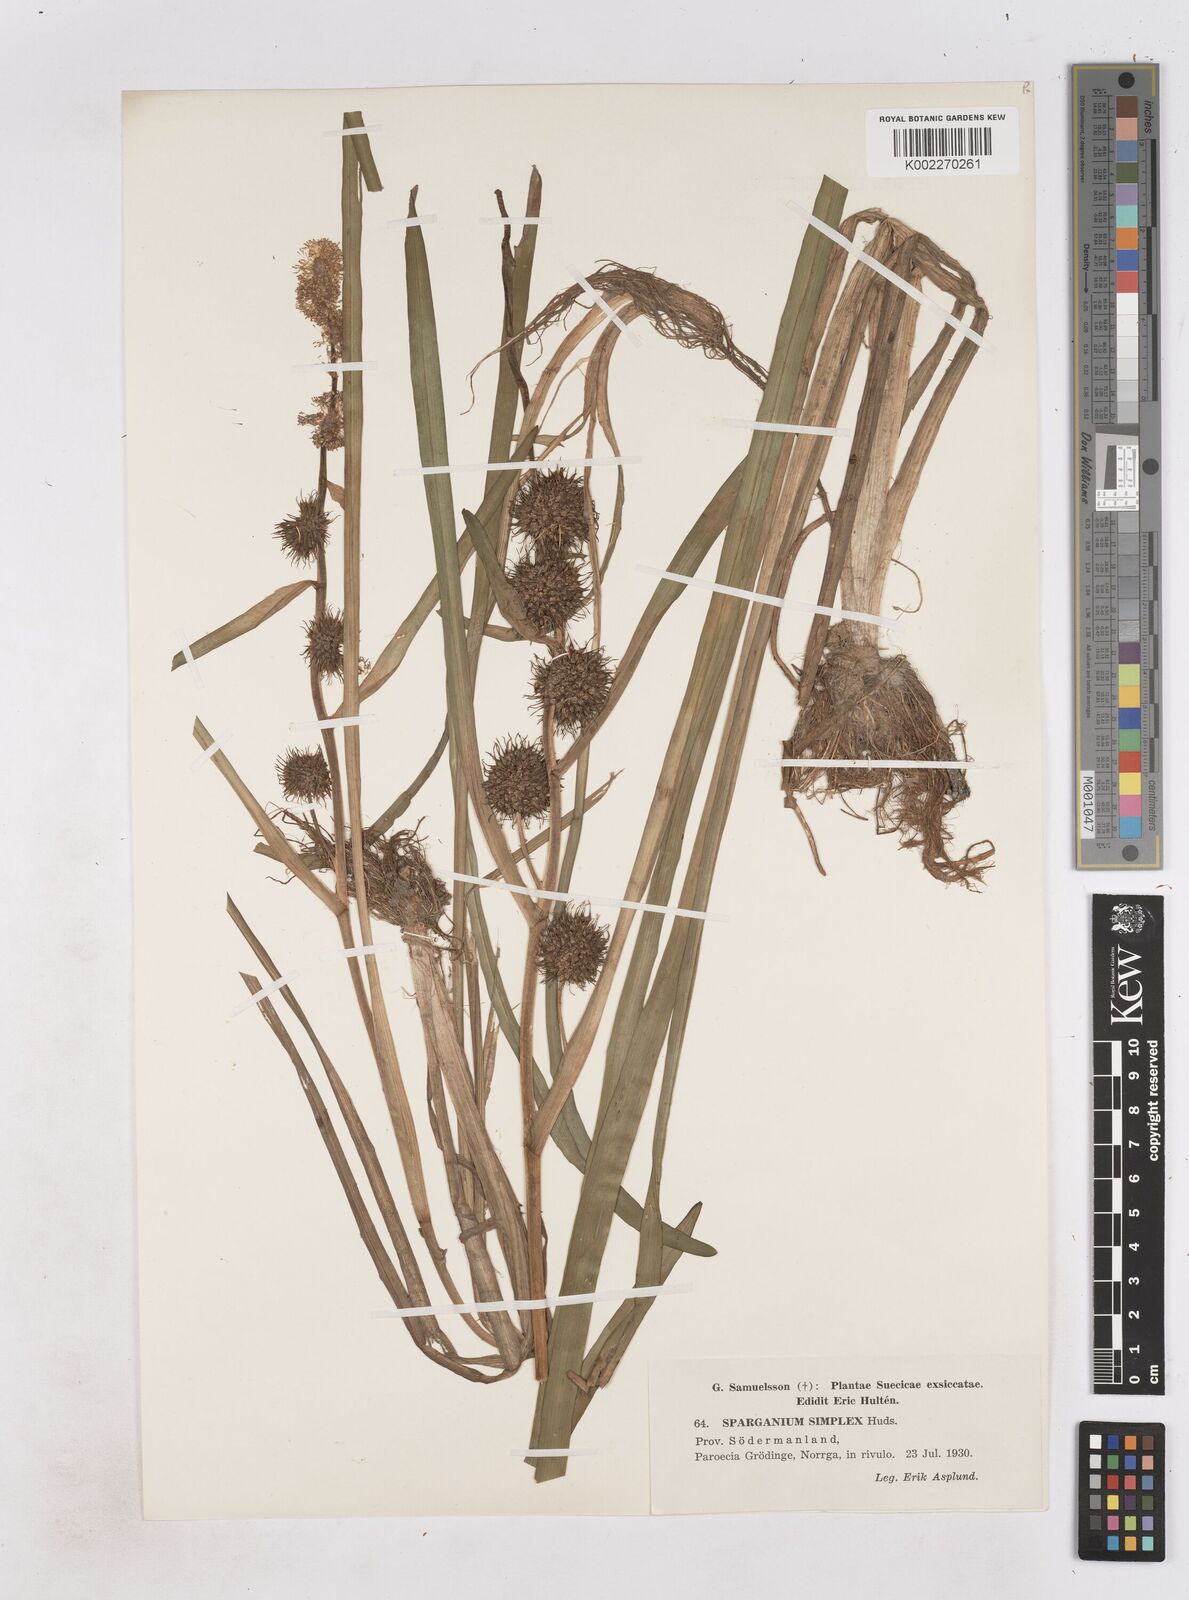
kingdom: Plantae
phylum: Tracheophyta
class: Liliopsida
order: Poales
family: Typhaceae
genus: Sparganium
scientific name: Sparganium emersum
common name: Unbranched bur-reed
